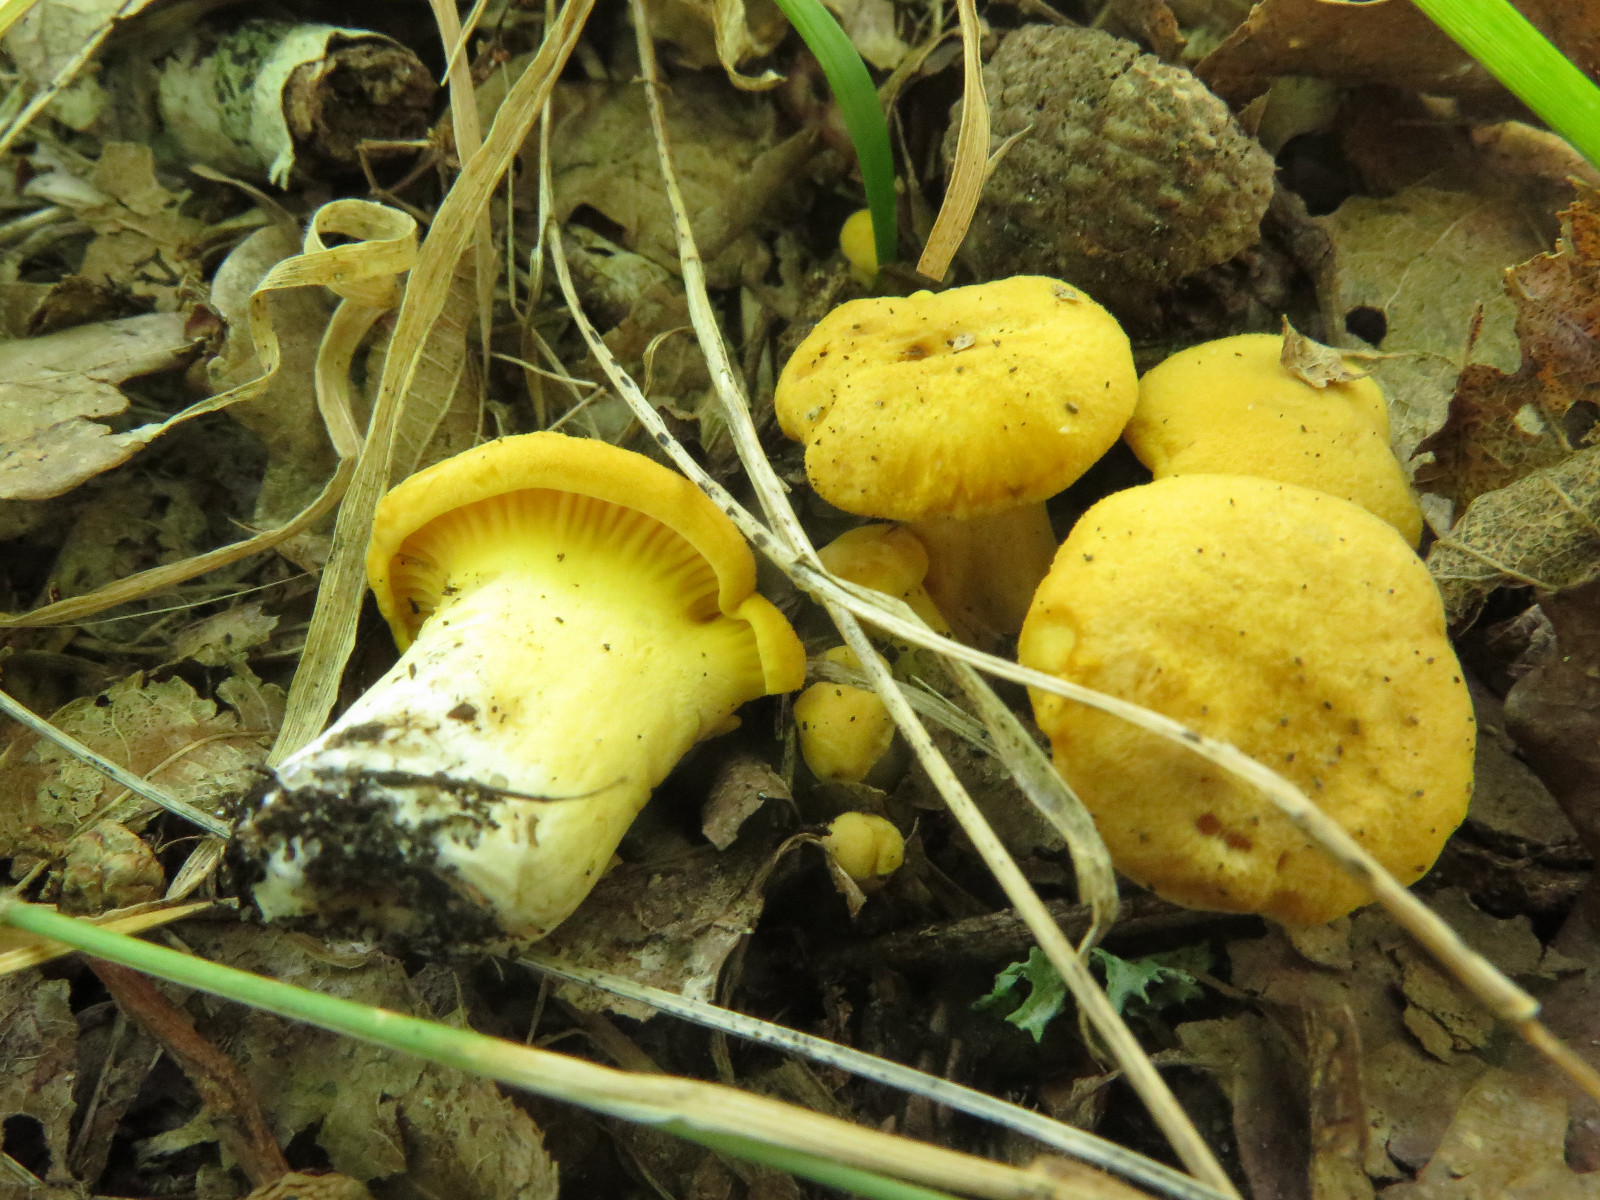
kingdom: Fungi
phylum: Basidiomycota
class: Agaricomycetes
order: Cantharellales
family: Hydnaceae
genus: Cantharellus
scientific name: Cantharellus cibarius
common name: almindelig kantarel
